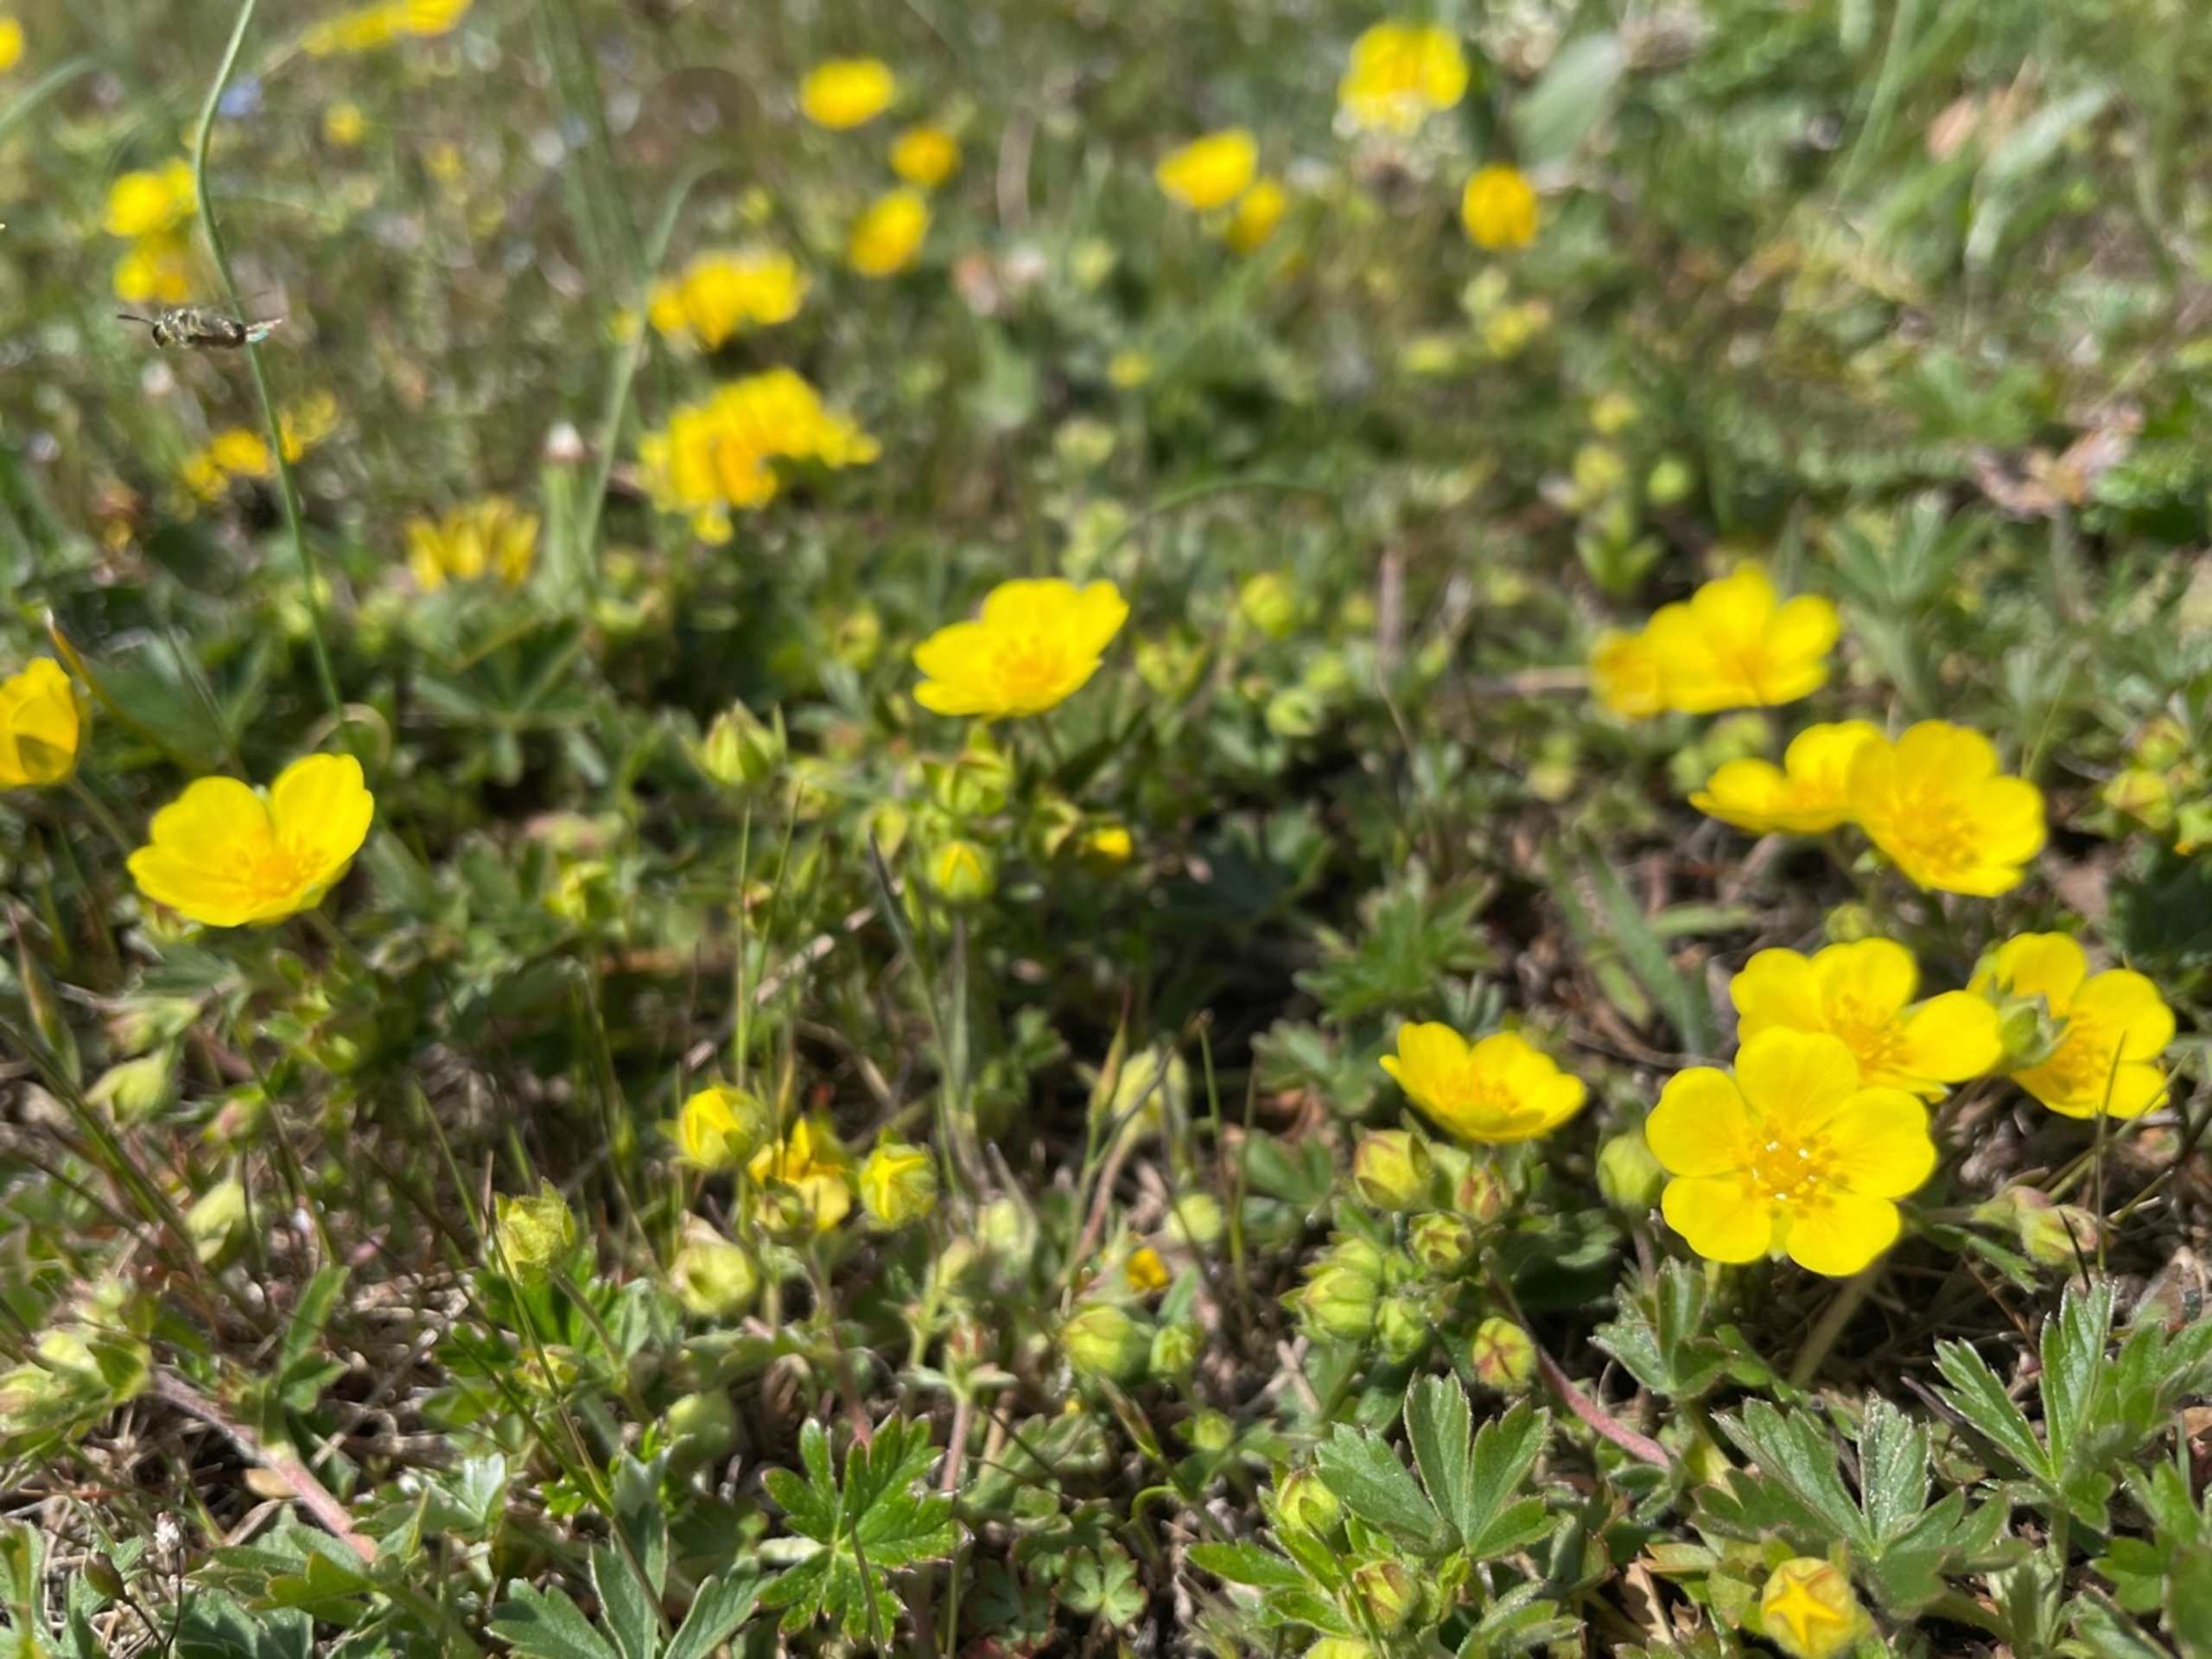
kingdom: Plantae
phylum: Tracheophyta
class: Magnoliopsida
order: Rosales
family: Rosaceae
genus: Potentilla
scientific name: Potentilla verna
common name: Vår-potentil
